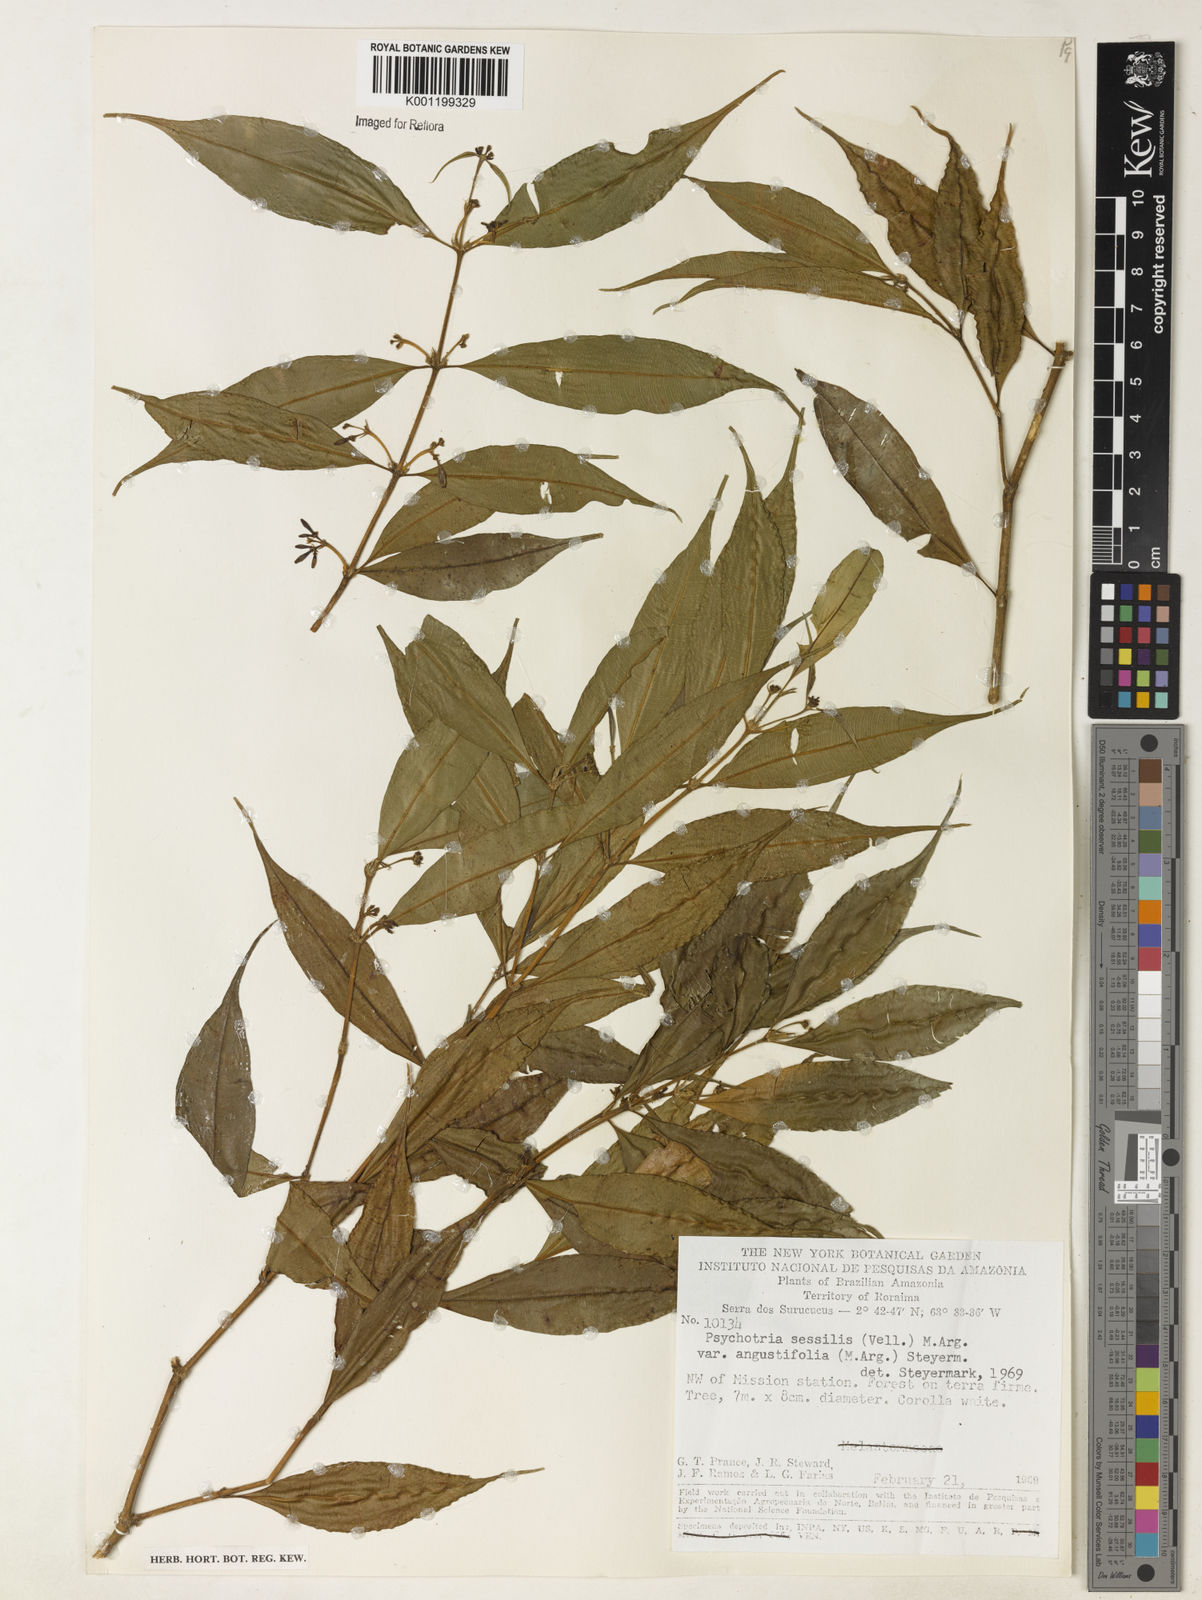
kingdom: Plantae
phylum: Tracheophyta
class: Magnoliopsida
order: Gentianales
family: Rubiaceae
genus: Rudgea
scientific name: Rudgea sessilis
